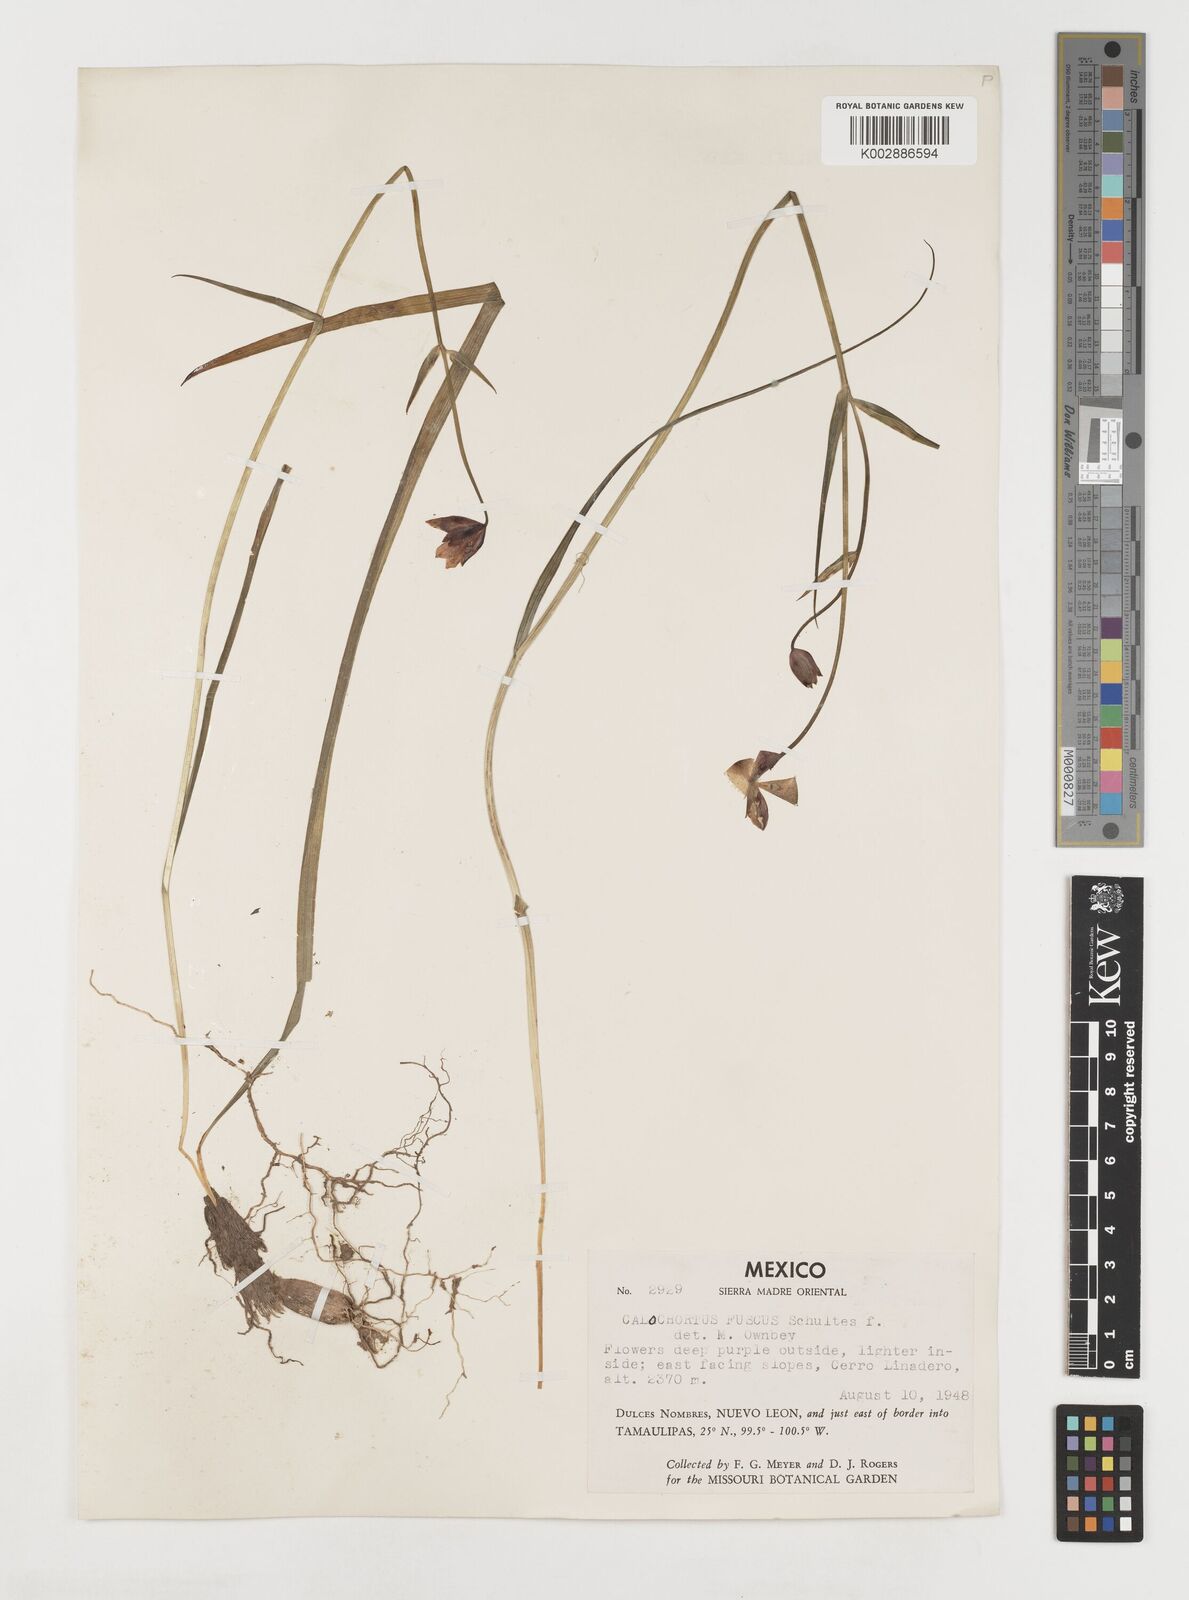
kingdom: Plantae
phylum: Tracheophyta
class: Liliopsida
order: Liliales
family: Liliaceae
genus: Calochortus
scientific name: Calochortus fuscus
